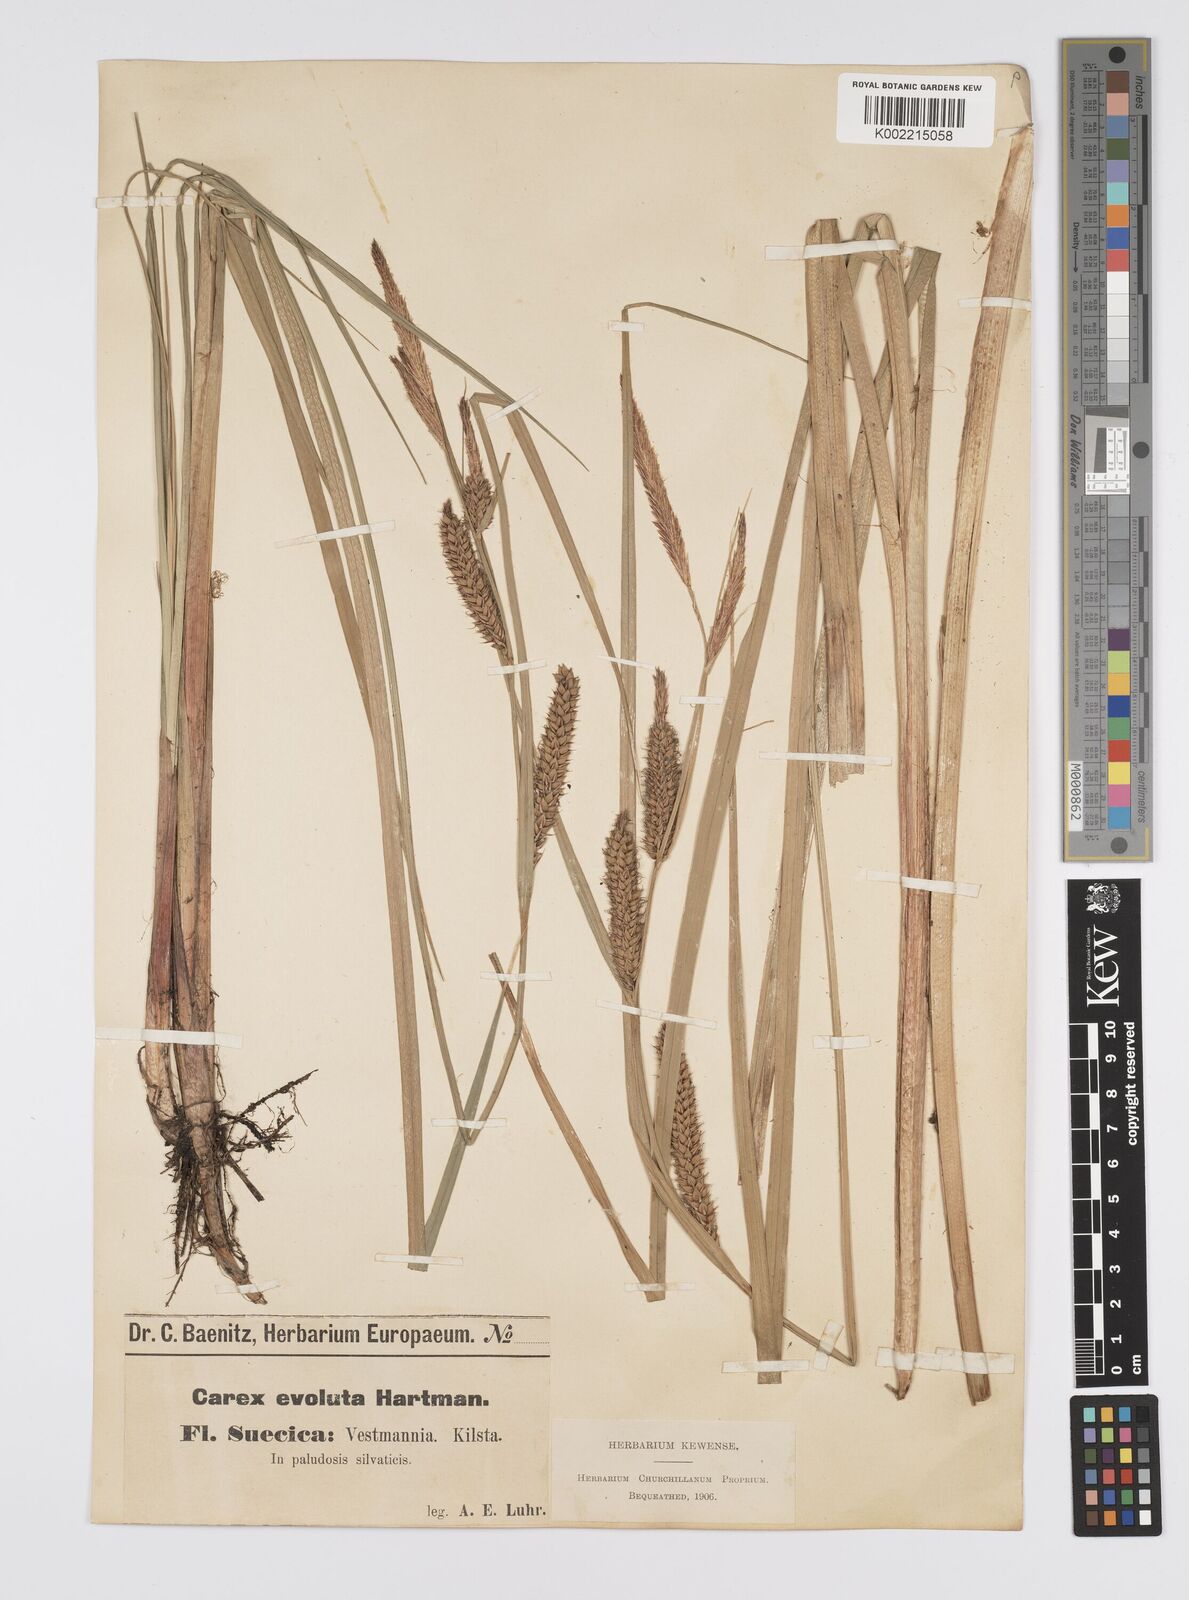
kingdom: Plantae
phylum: Tracheophyta
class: Liliopsida
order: Poales
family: Cyperaceae
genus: Carex
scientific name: Carex evoluta
